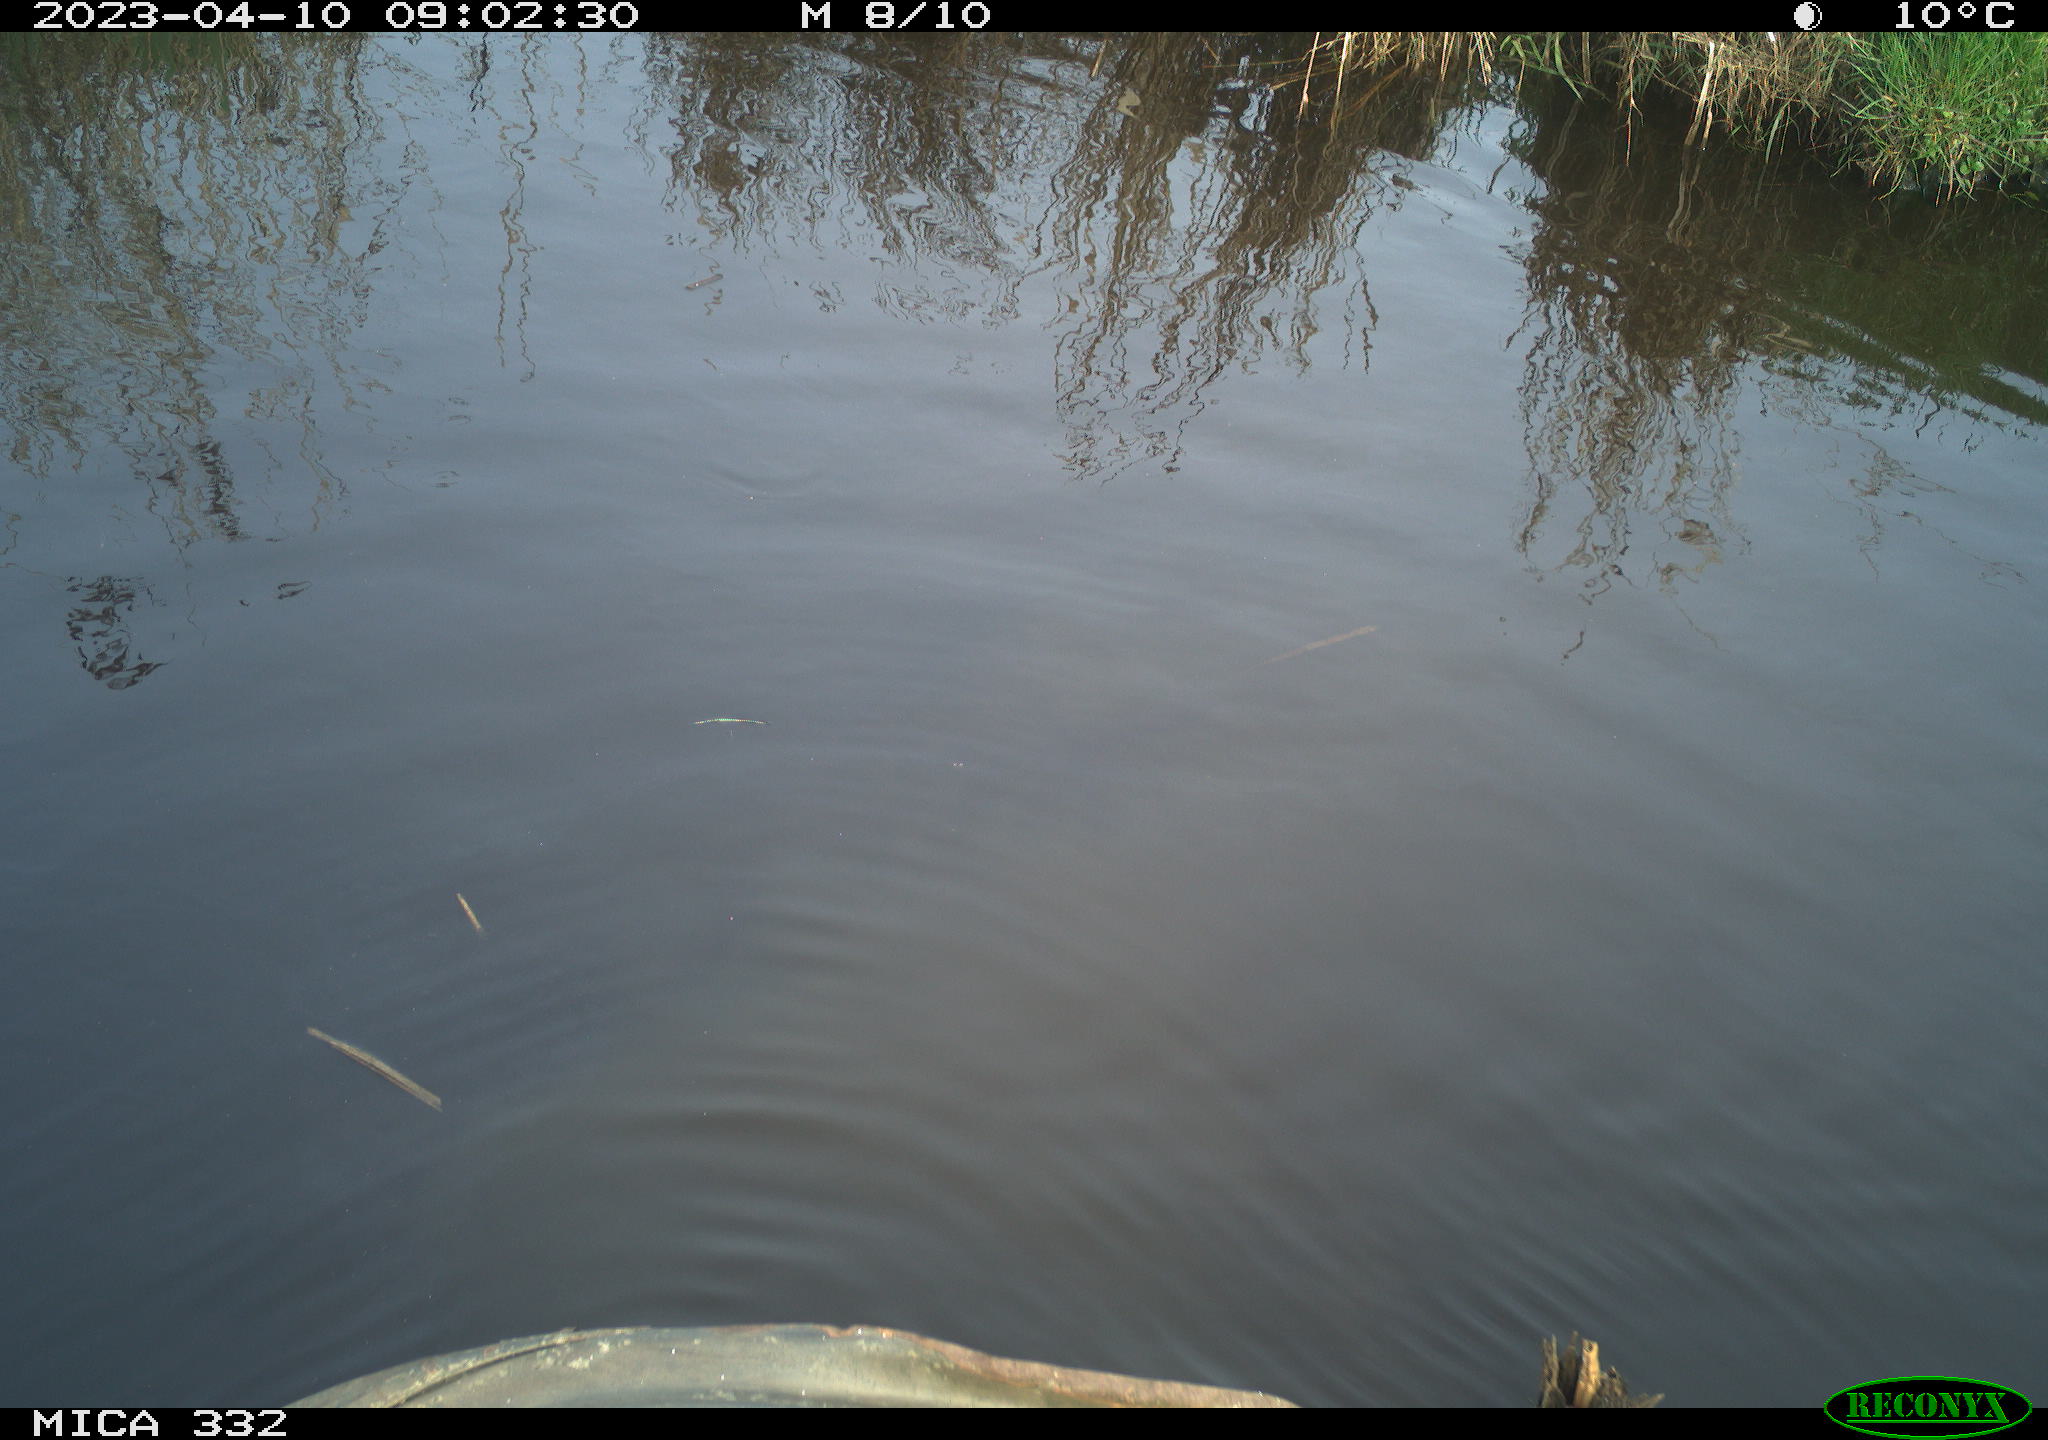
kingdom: Animalia
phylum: Chordata
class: Aves
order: Anseriformes
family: Anatidae
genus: Anas
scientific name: Anas
